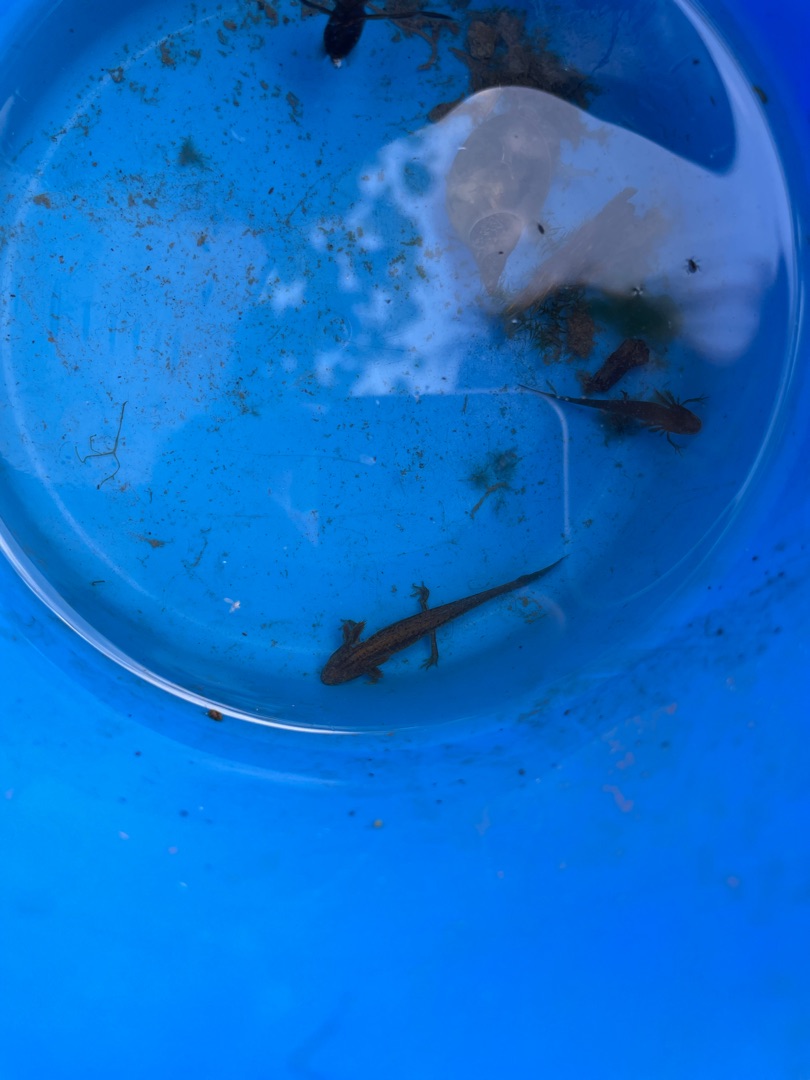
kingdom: Animalia
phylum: Chordata
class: Amphibia
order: Caudata
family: Salamandridae
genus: Lissotriton
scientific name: Lissotriton vulgaris
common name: Lille vandsalamander
